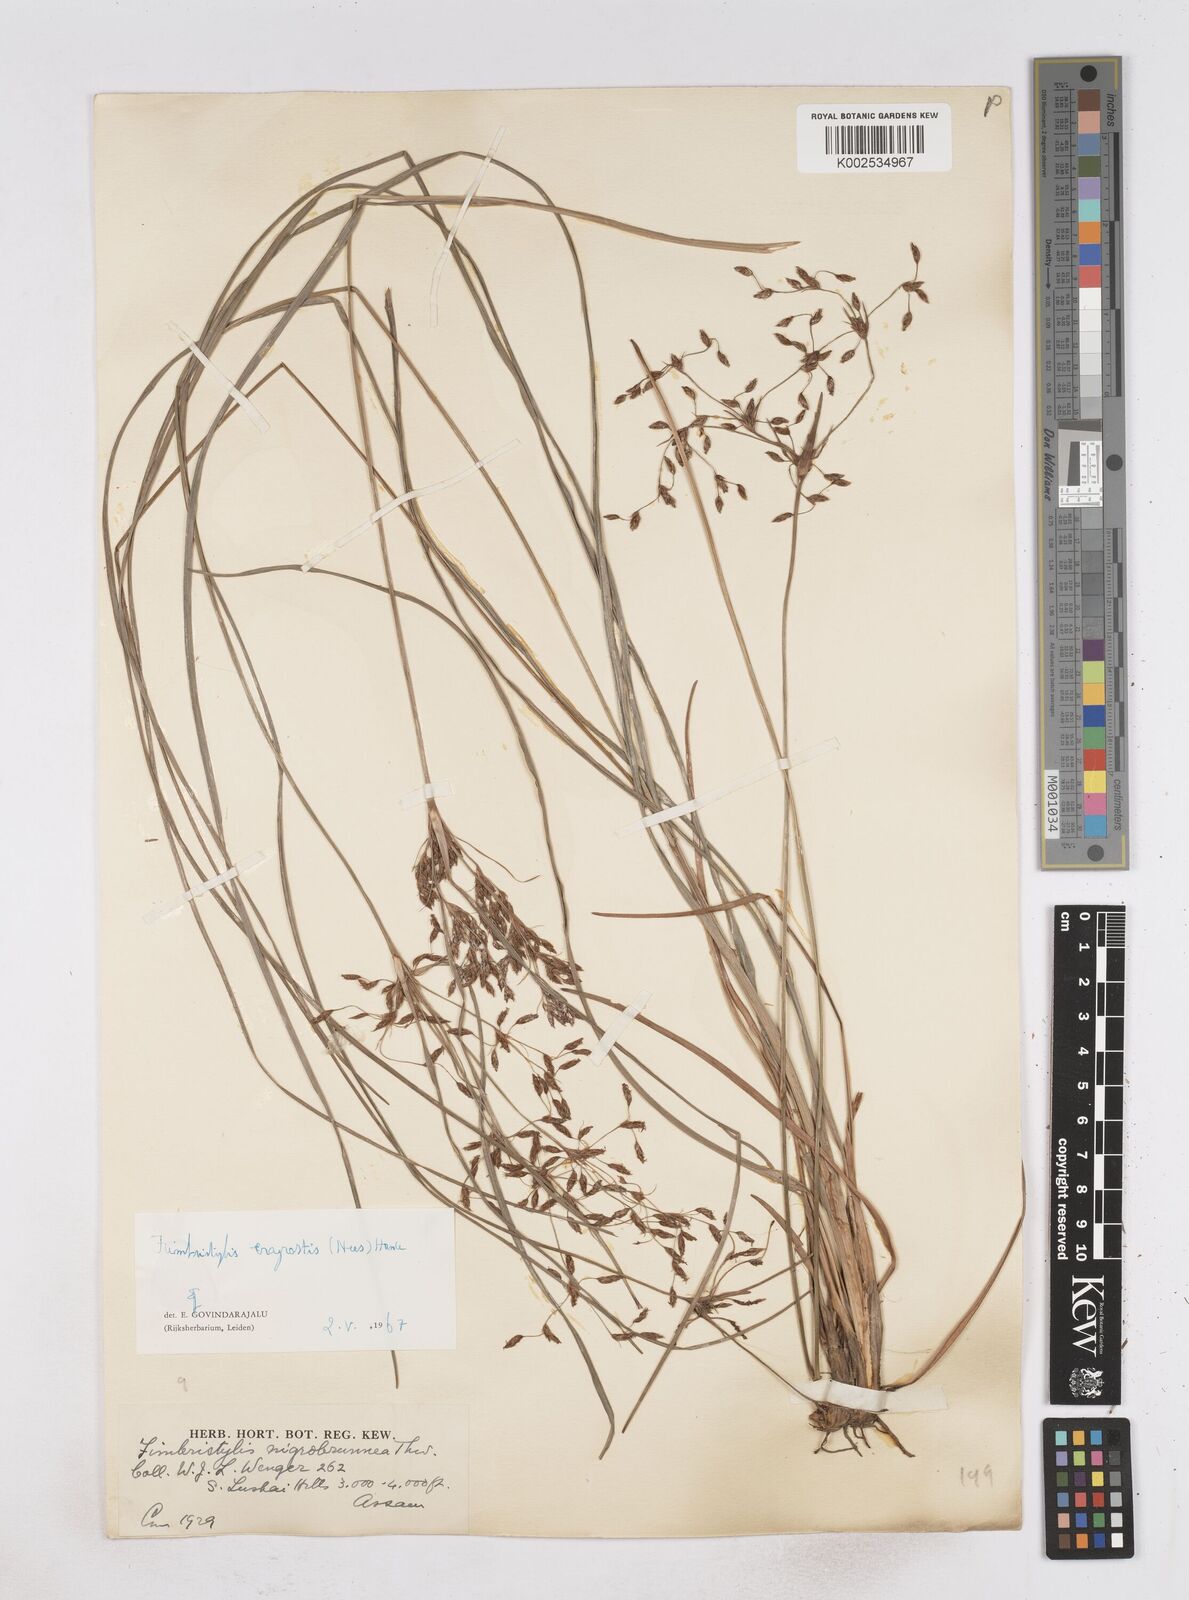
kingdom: Plantae
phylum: Tracheophyta
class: Liliopsida
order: Poales
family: Cyperaceae
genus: Fimbristylis
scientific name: Fimbristylis nigrobrunnea
